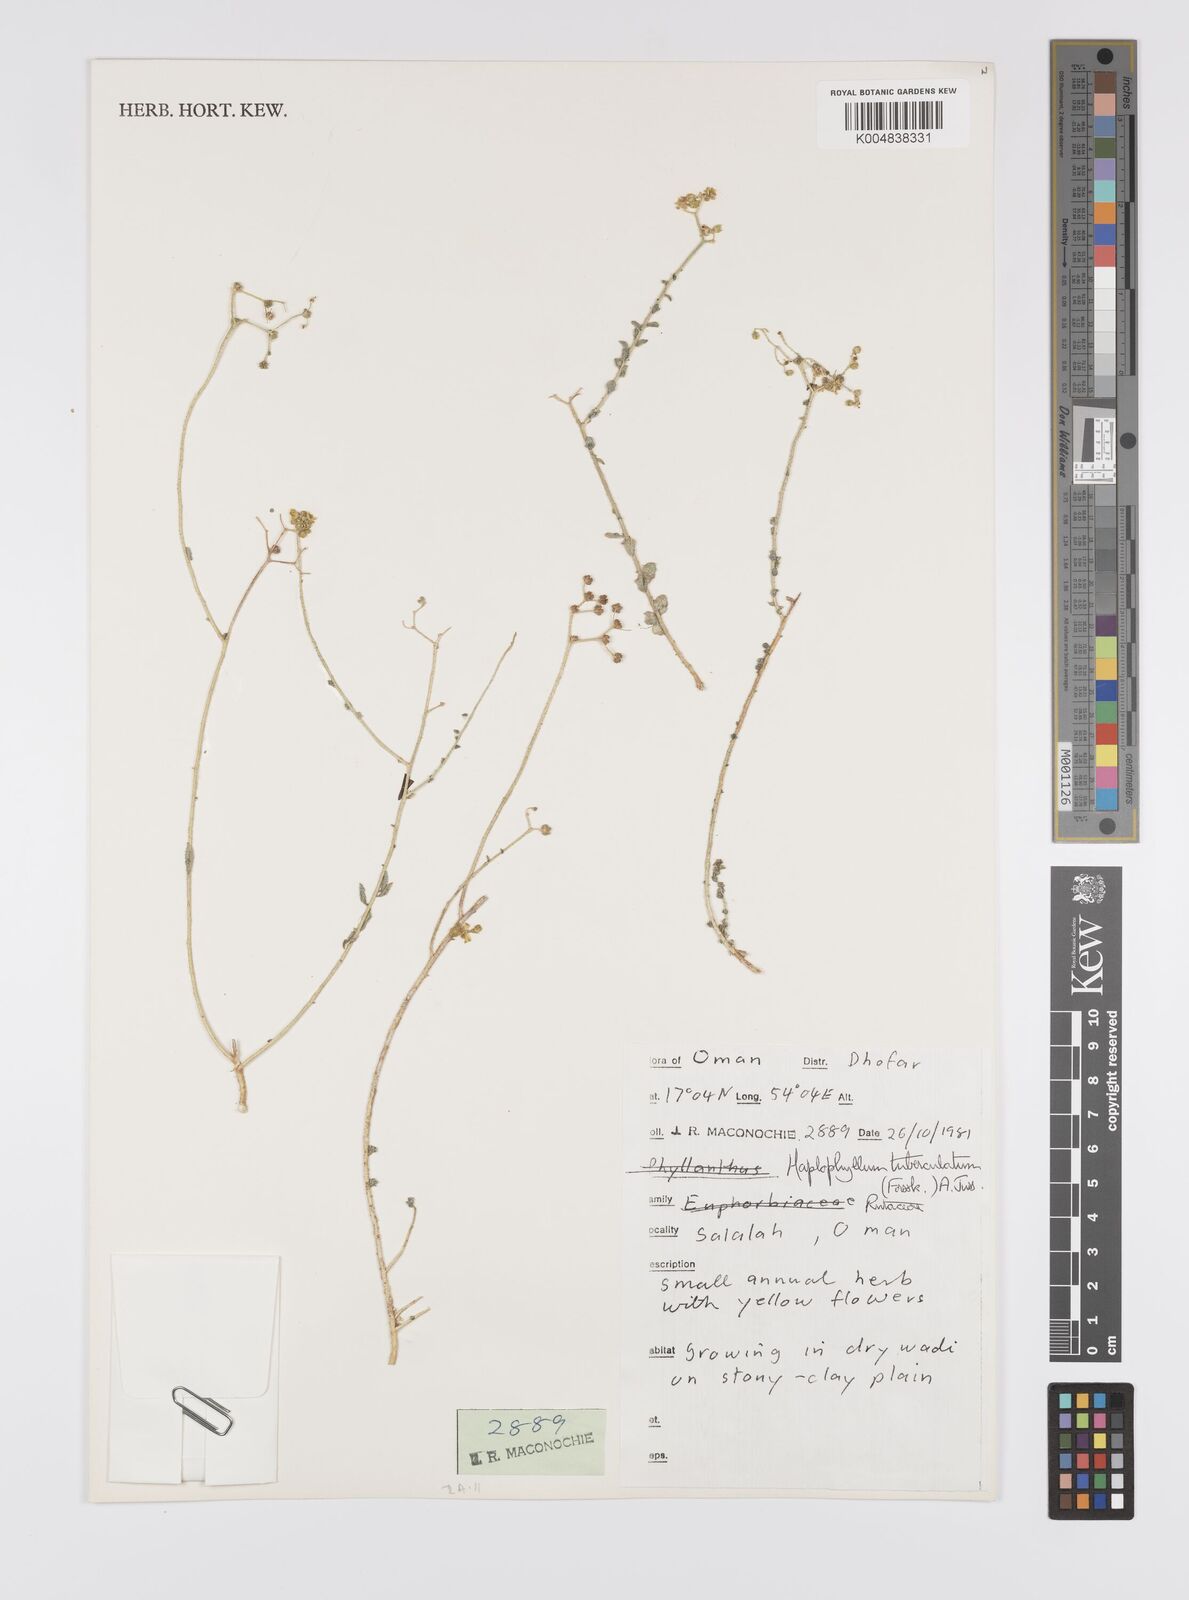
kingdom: Plantae
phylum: Tracheophyta
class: Magnoliopsida
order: Sapindales
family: Rutaceae
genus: Haplophyllum
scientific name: Haplophyllum tuberculatum
